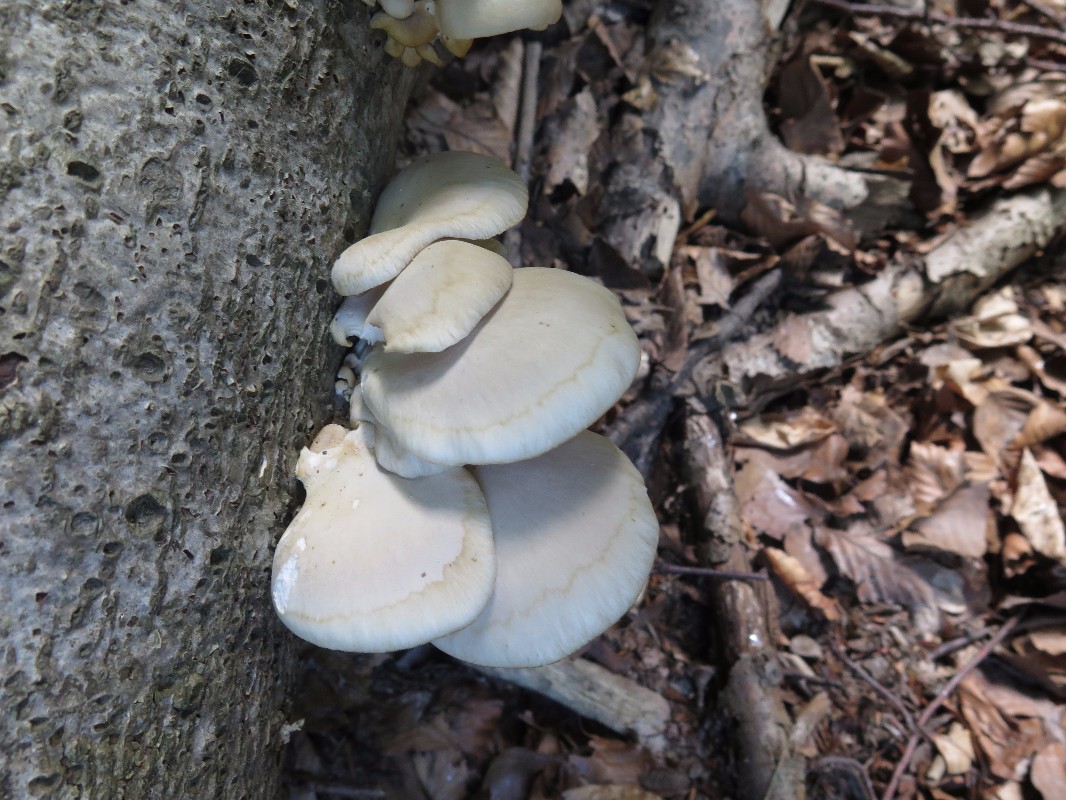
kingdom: Fungi
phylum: Basidiomycota
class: Agaricomycetes
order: Agaricales
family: Pleurotaceae
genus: Pleurotus
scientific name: Pleurotus pulmonarius
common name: sommer-østershat
